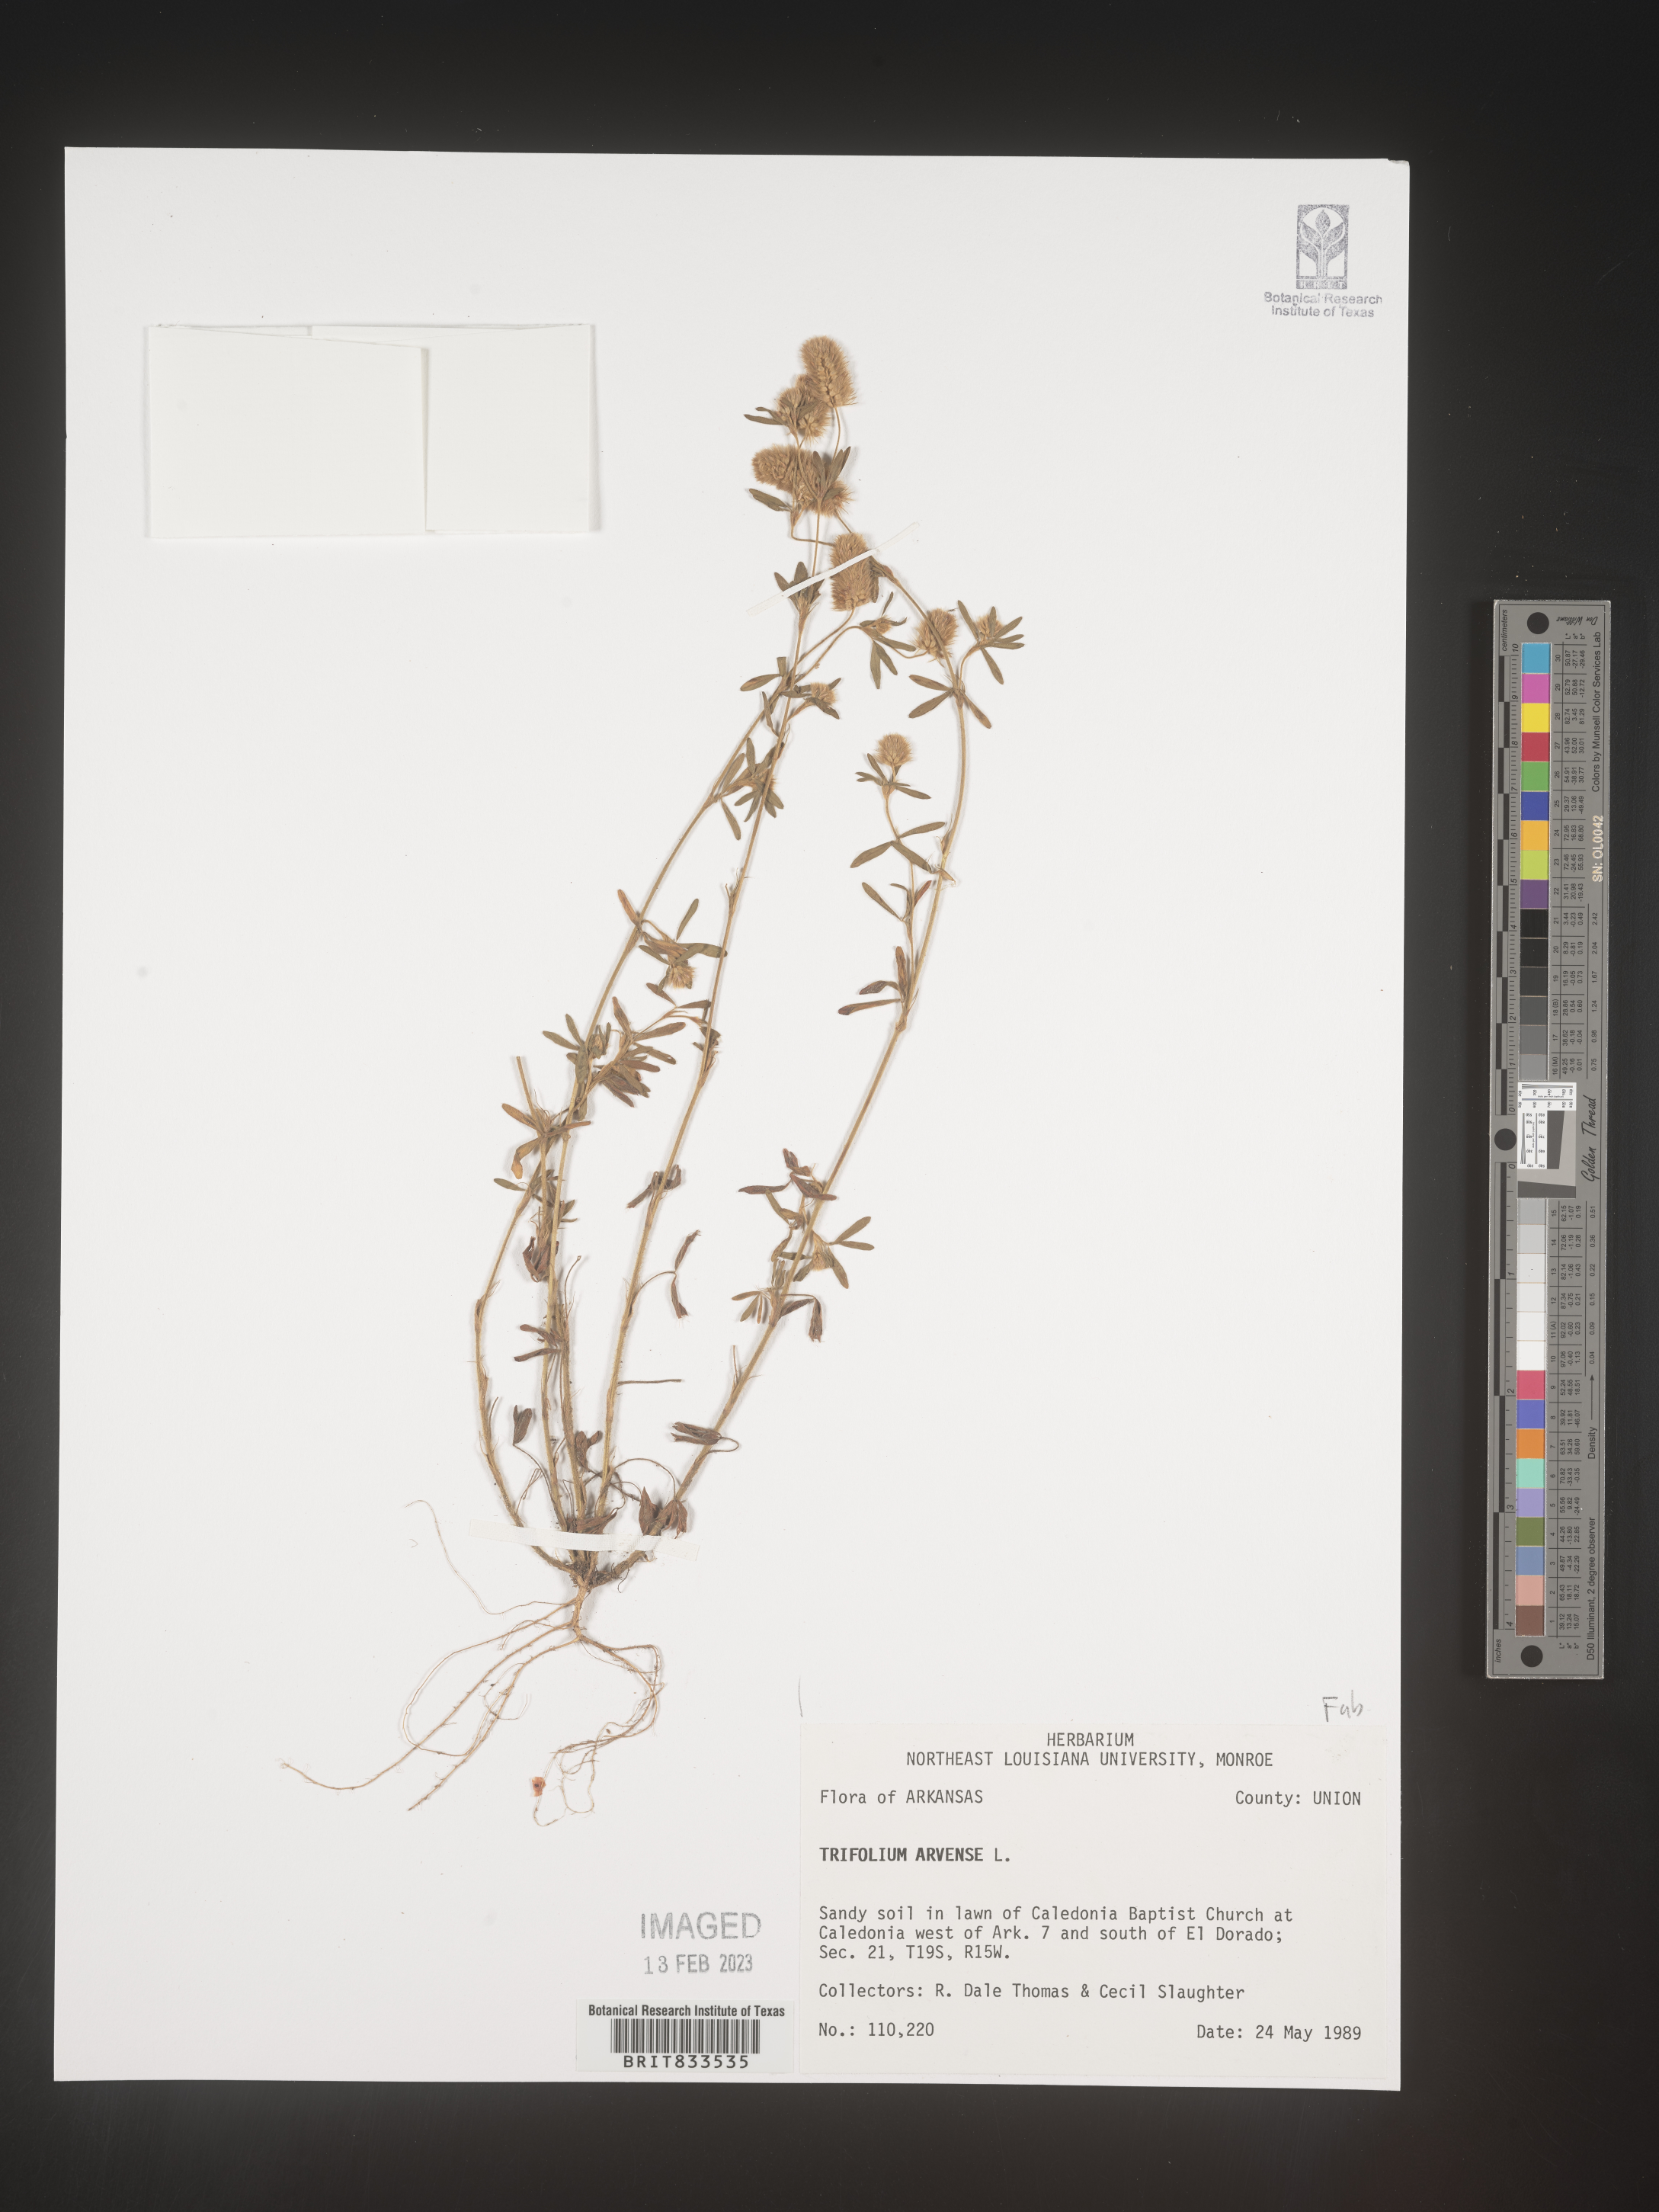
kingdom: Plantae
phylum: Tracheophyta
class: Magnoliopsida
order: Fabales
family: Fabaceae
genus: Trifolium
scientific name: Trifolium arvense
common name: Hare's-foot clover
